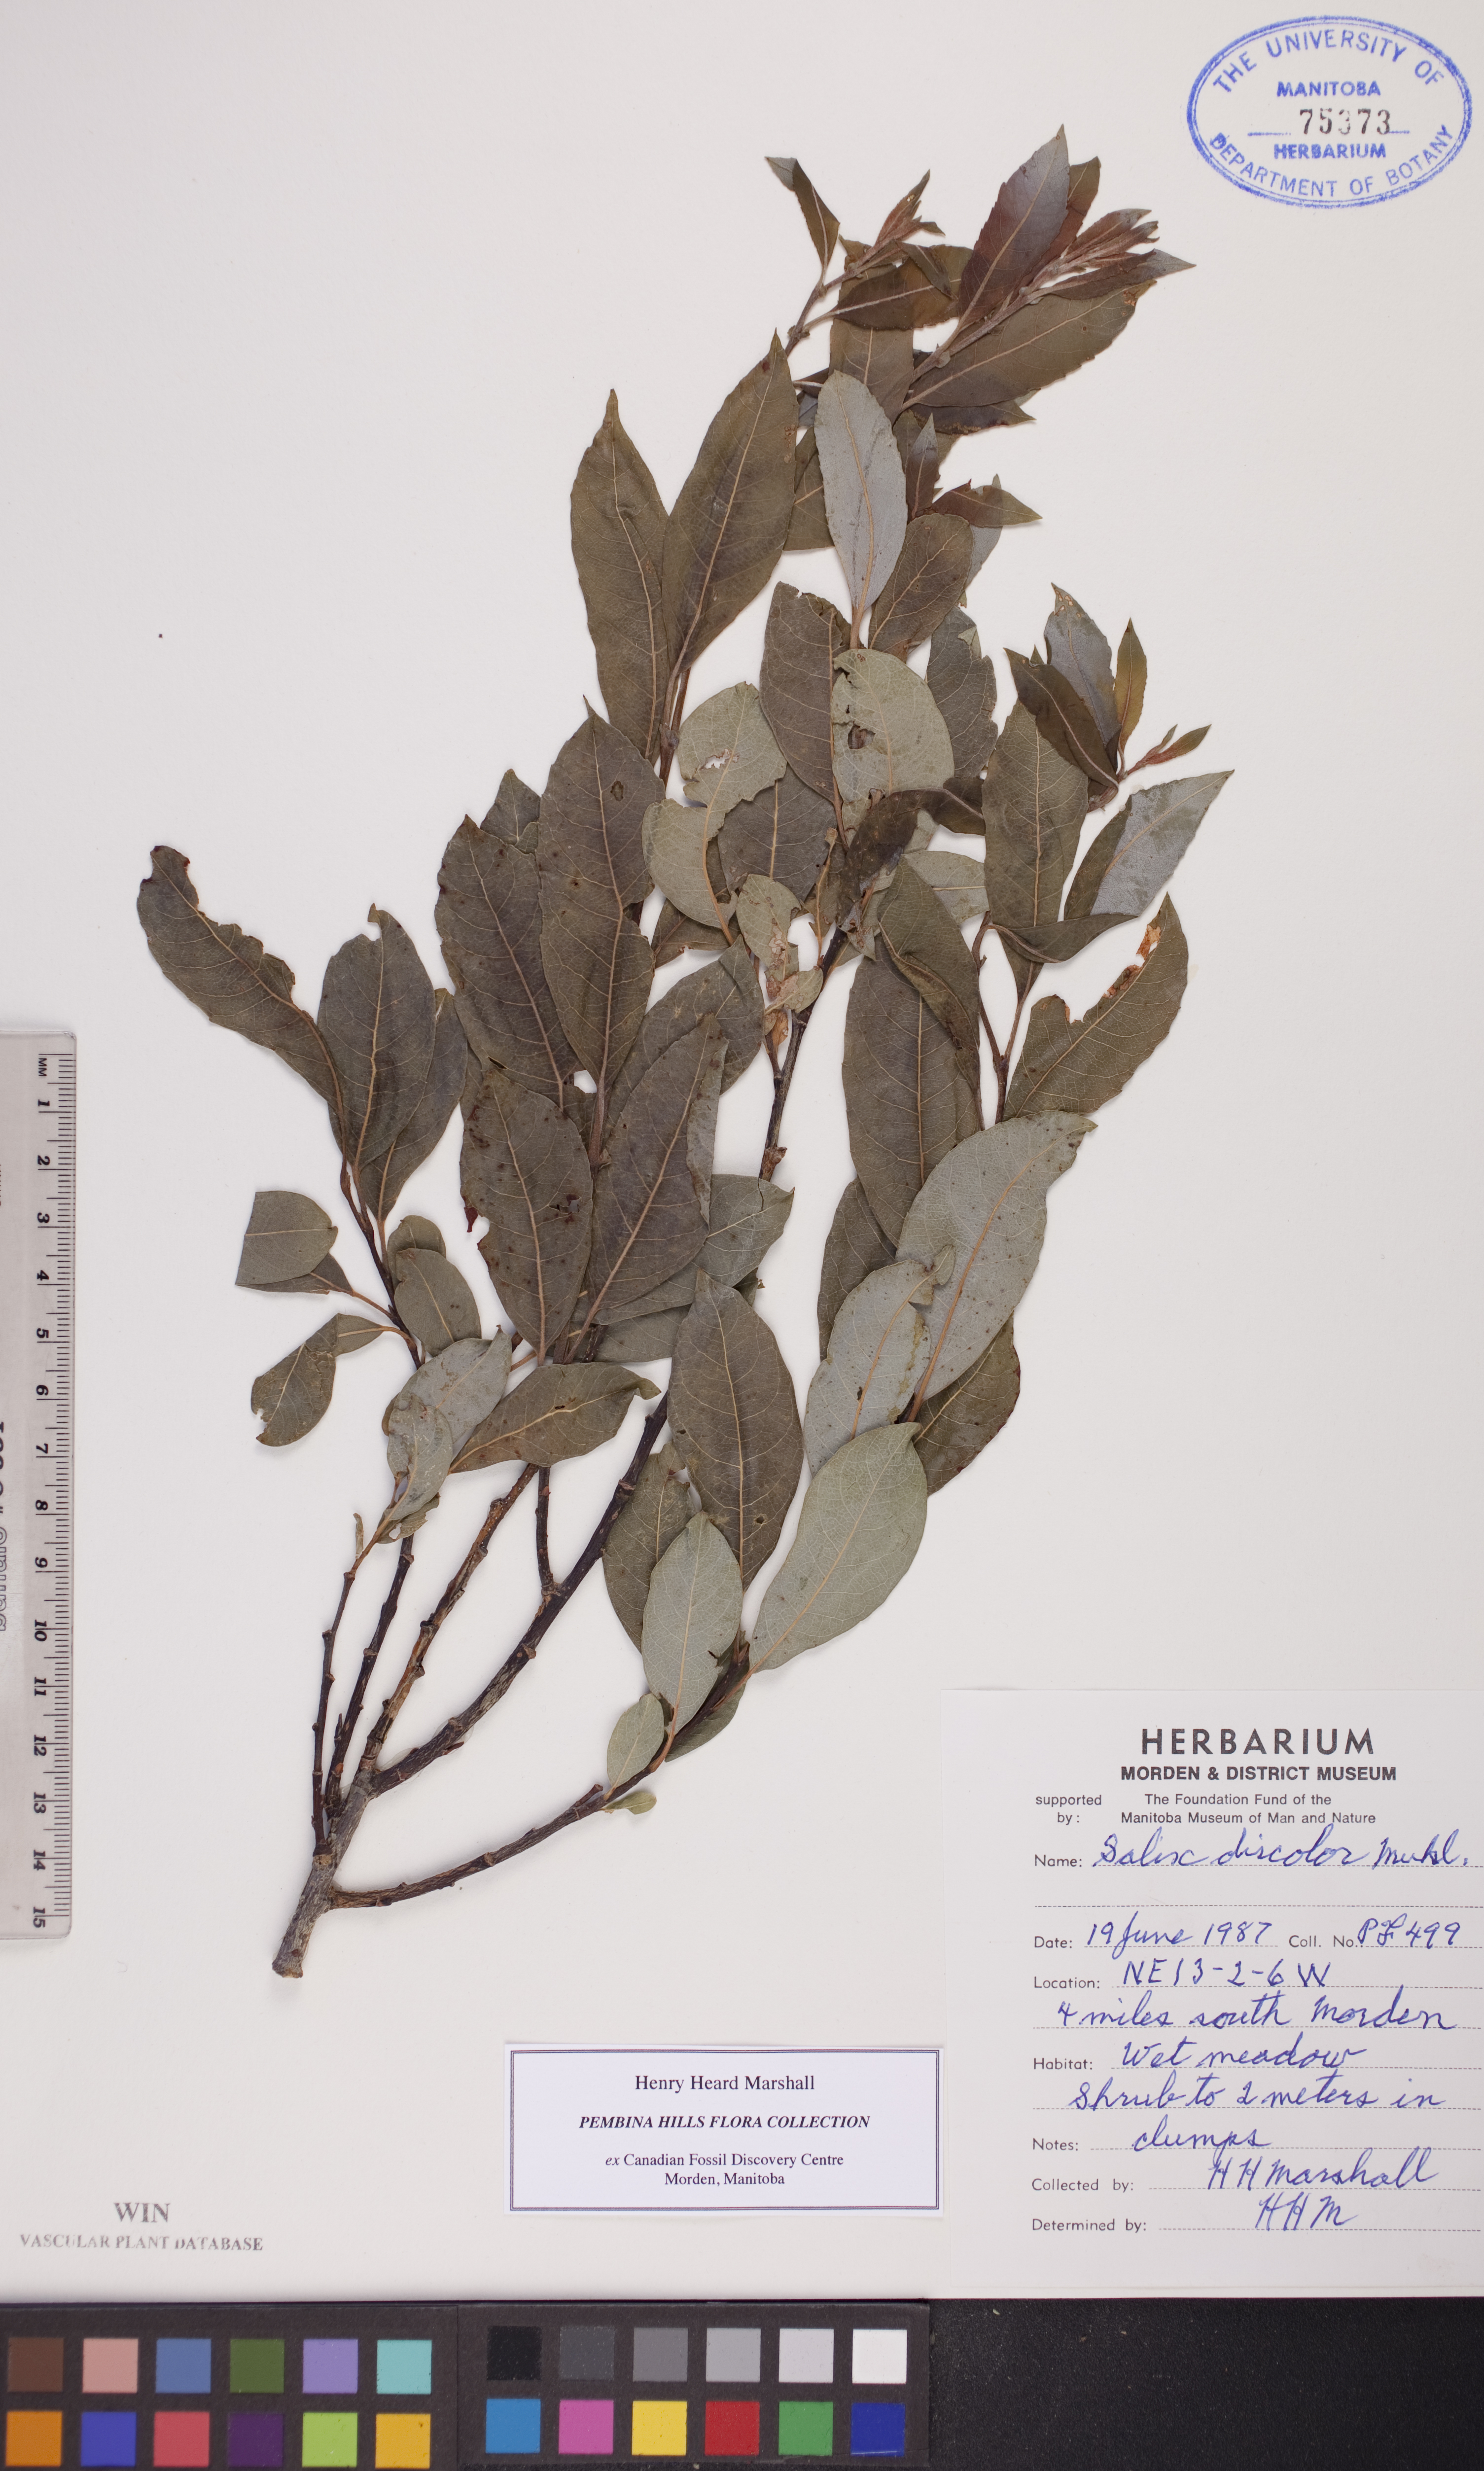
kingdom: Plantae
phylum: Tracheophyta
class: Magnoliopsida
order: Malpighiales
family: Salicaceae
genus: Salix
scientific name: Salix discolor
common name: Glaucous willow
